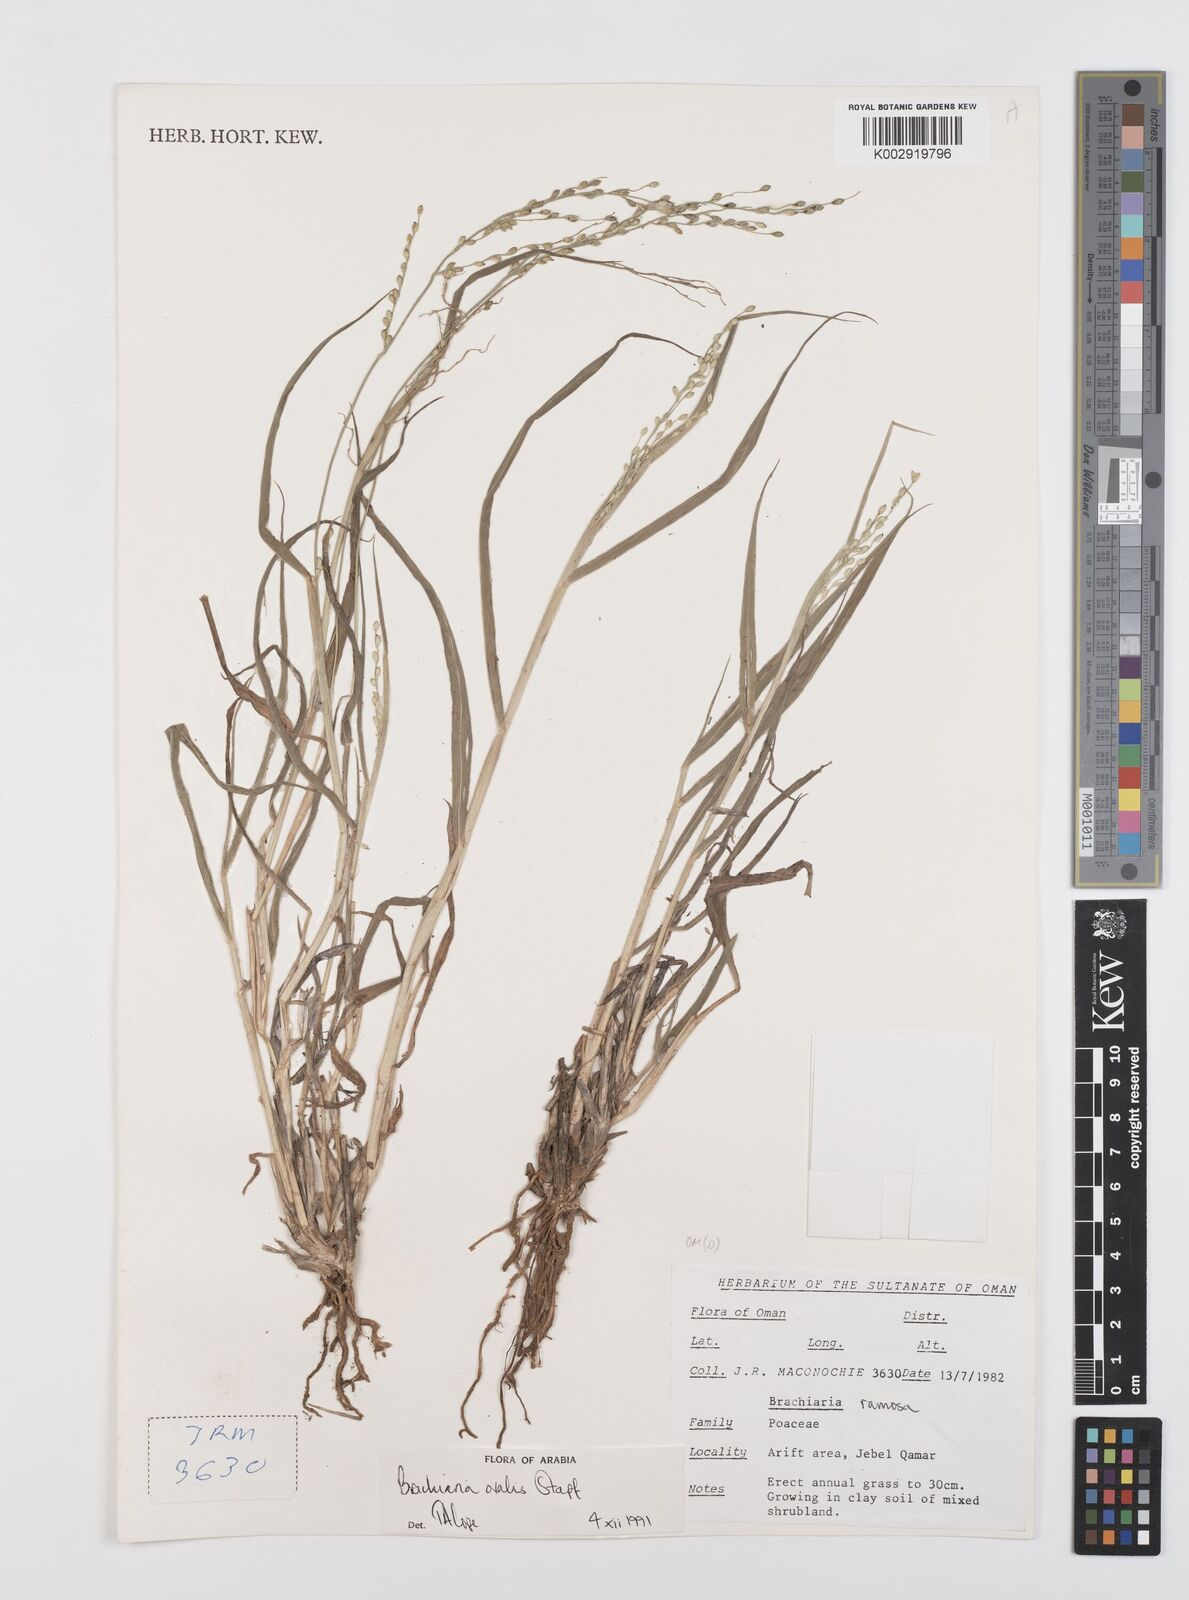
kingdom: Plantae
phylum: Tracheophyta
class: Liliopsida
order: Poales
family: Poaceae
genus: Urochloa
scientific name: Urochloa ovalis
